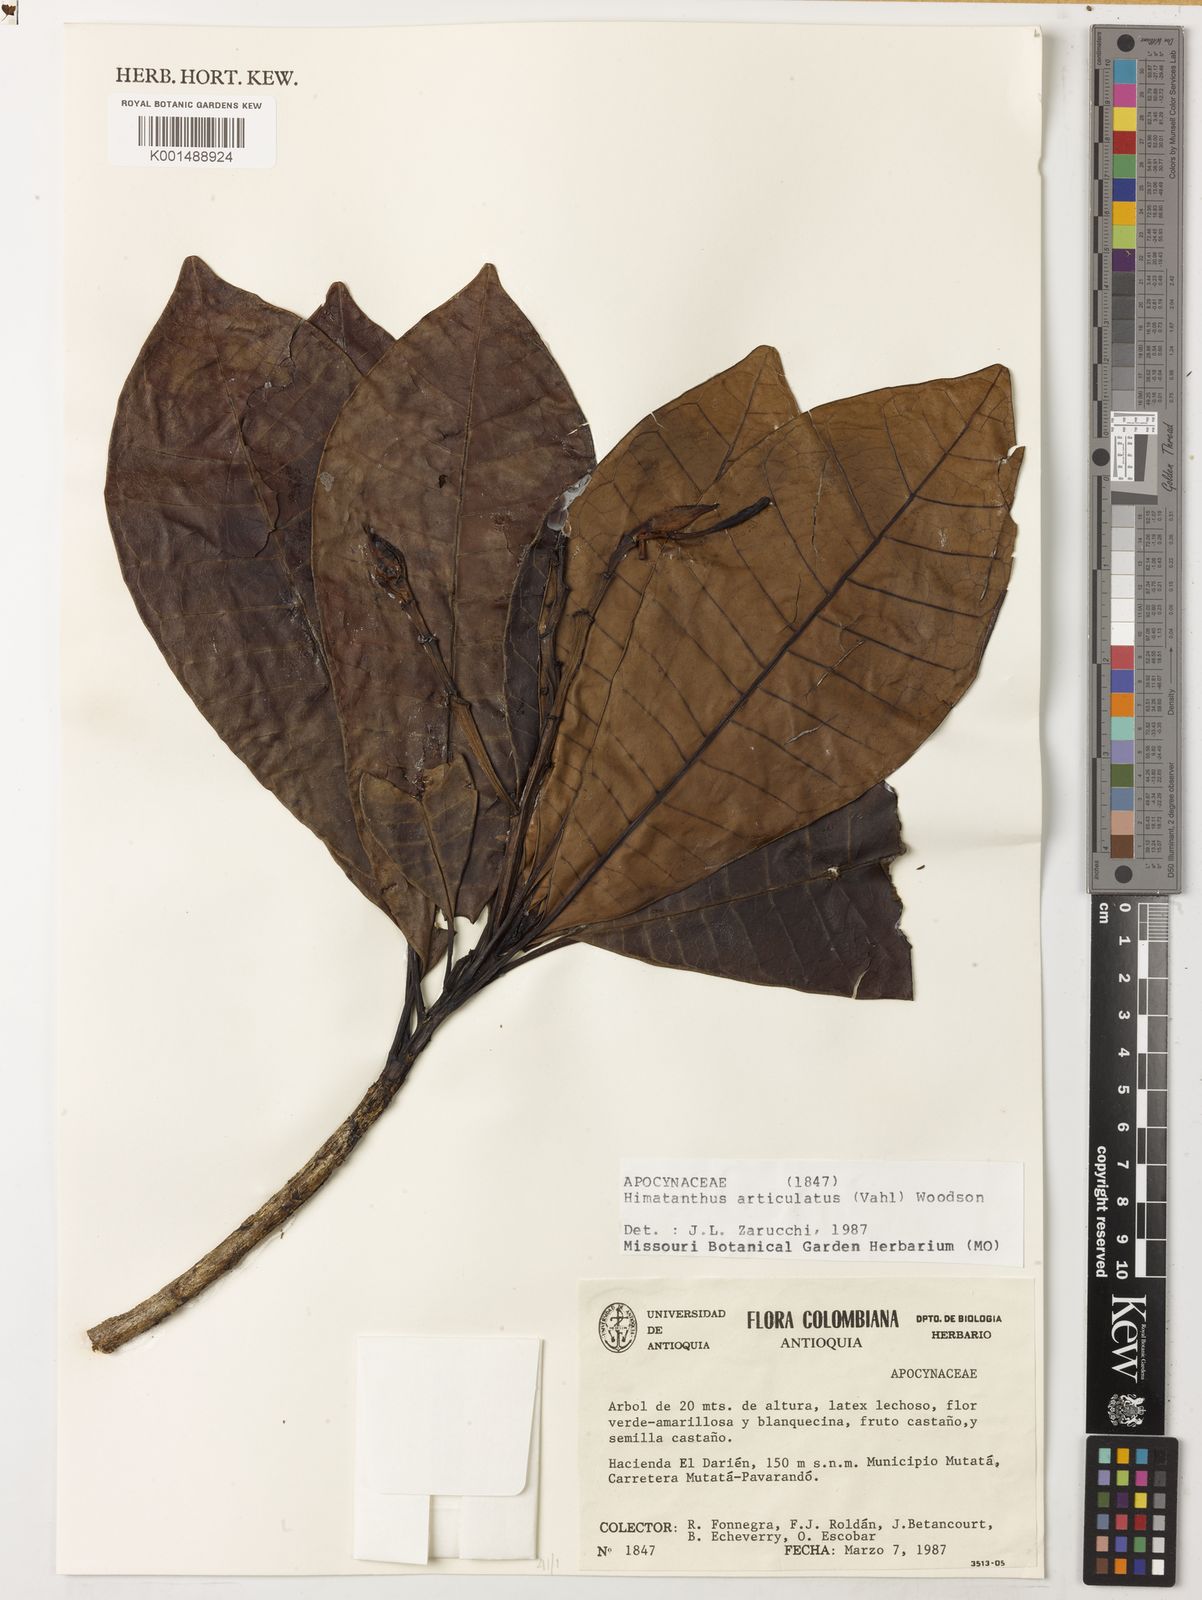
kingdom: Plantae
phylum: Tracheophyta
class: Magnoliopsida
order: Gentianales
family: Apocynaceae
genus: Himatanthus
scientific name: Himatanthus articulatus
